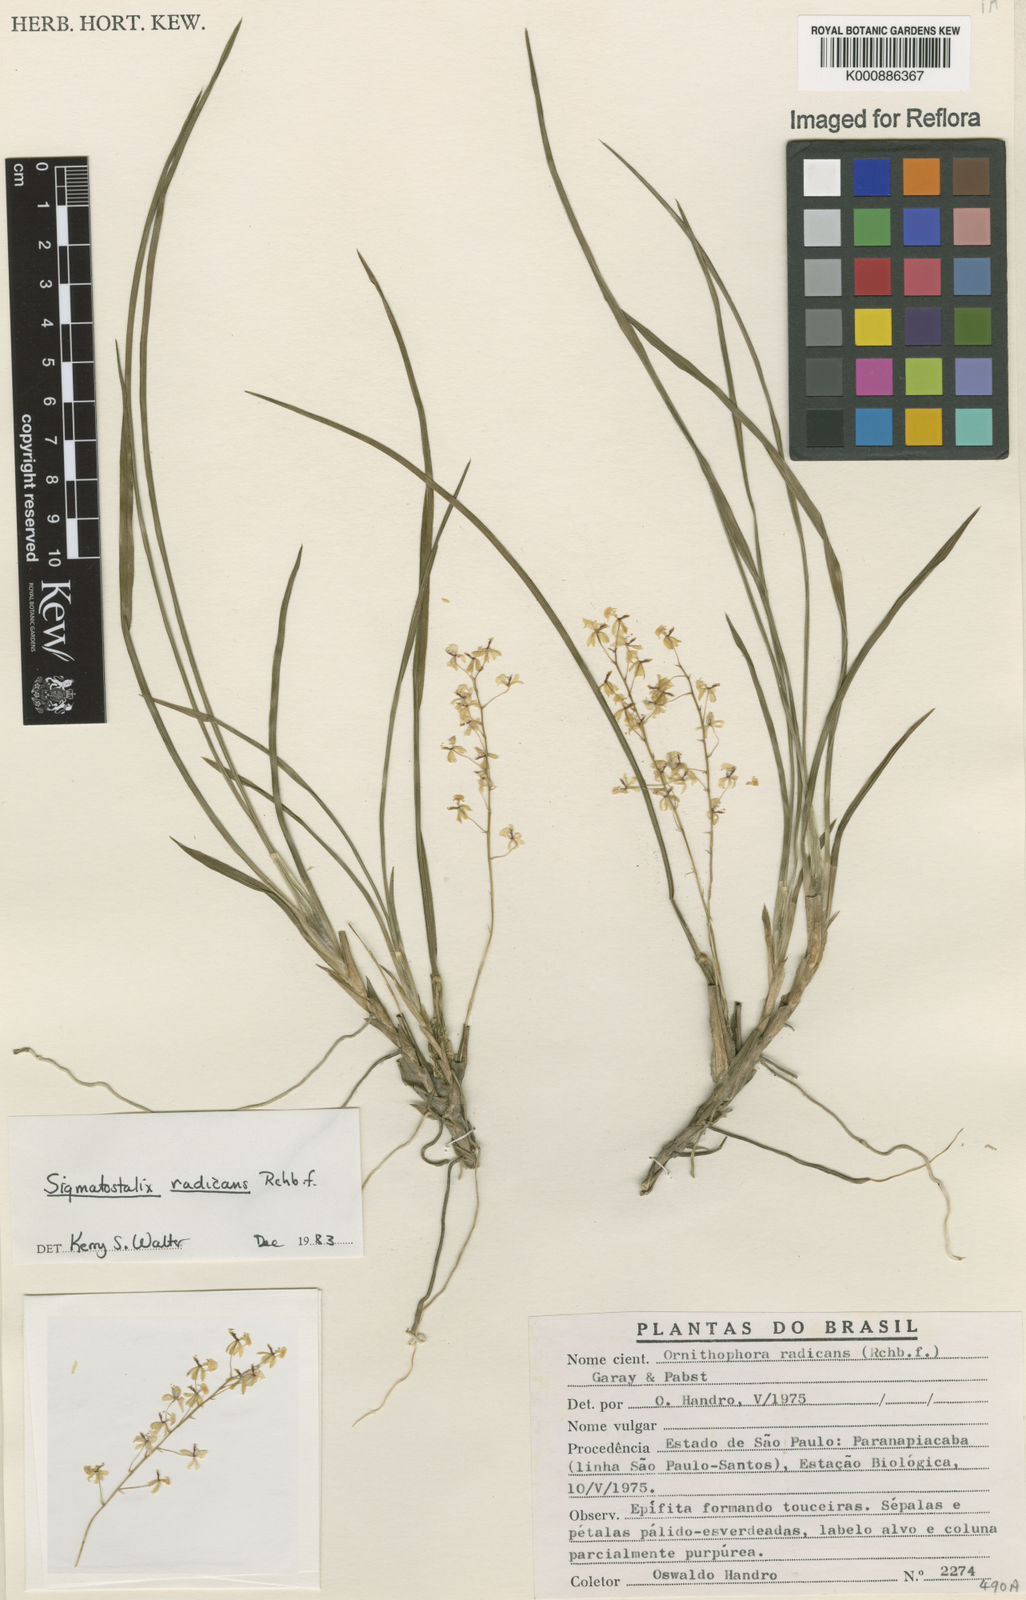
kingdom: Plantae
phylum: Tracheophyta
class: Liliopsida
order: Asparagales
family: Orchidaceae
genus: Gomesa
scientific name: Gomesa radicans
